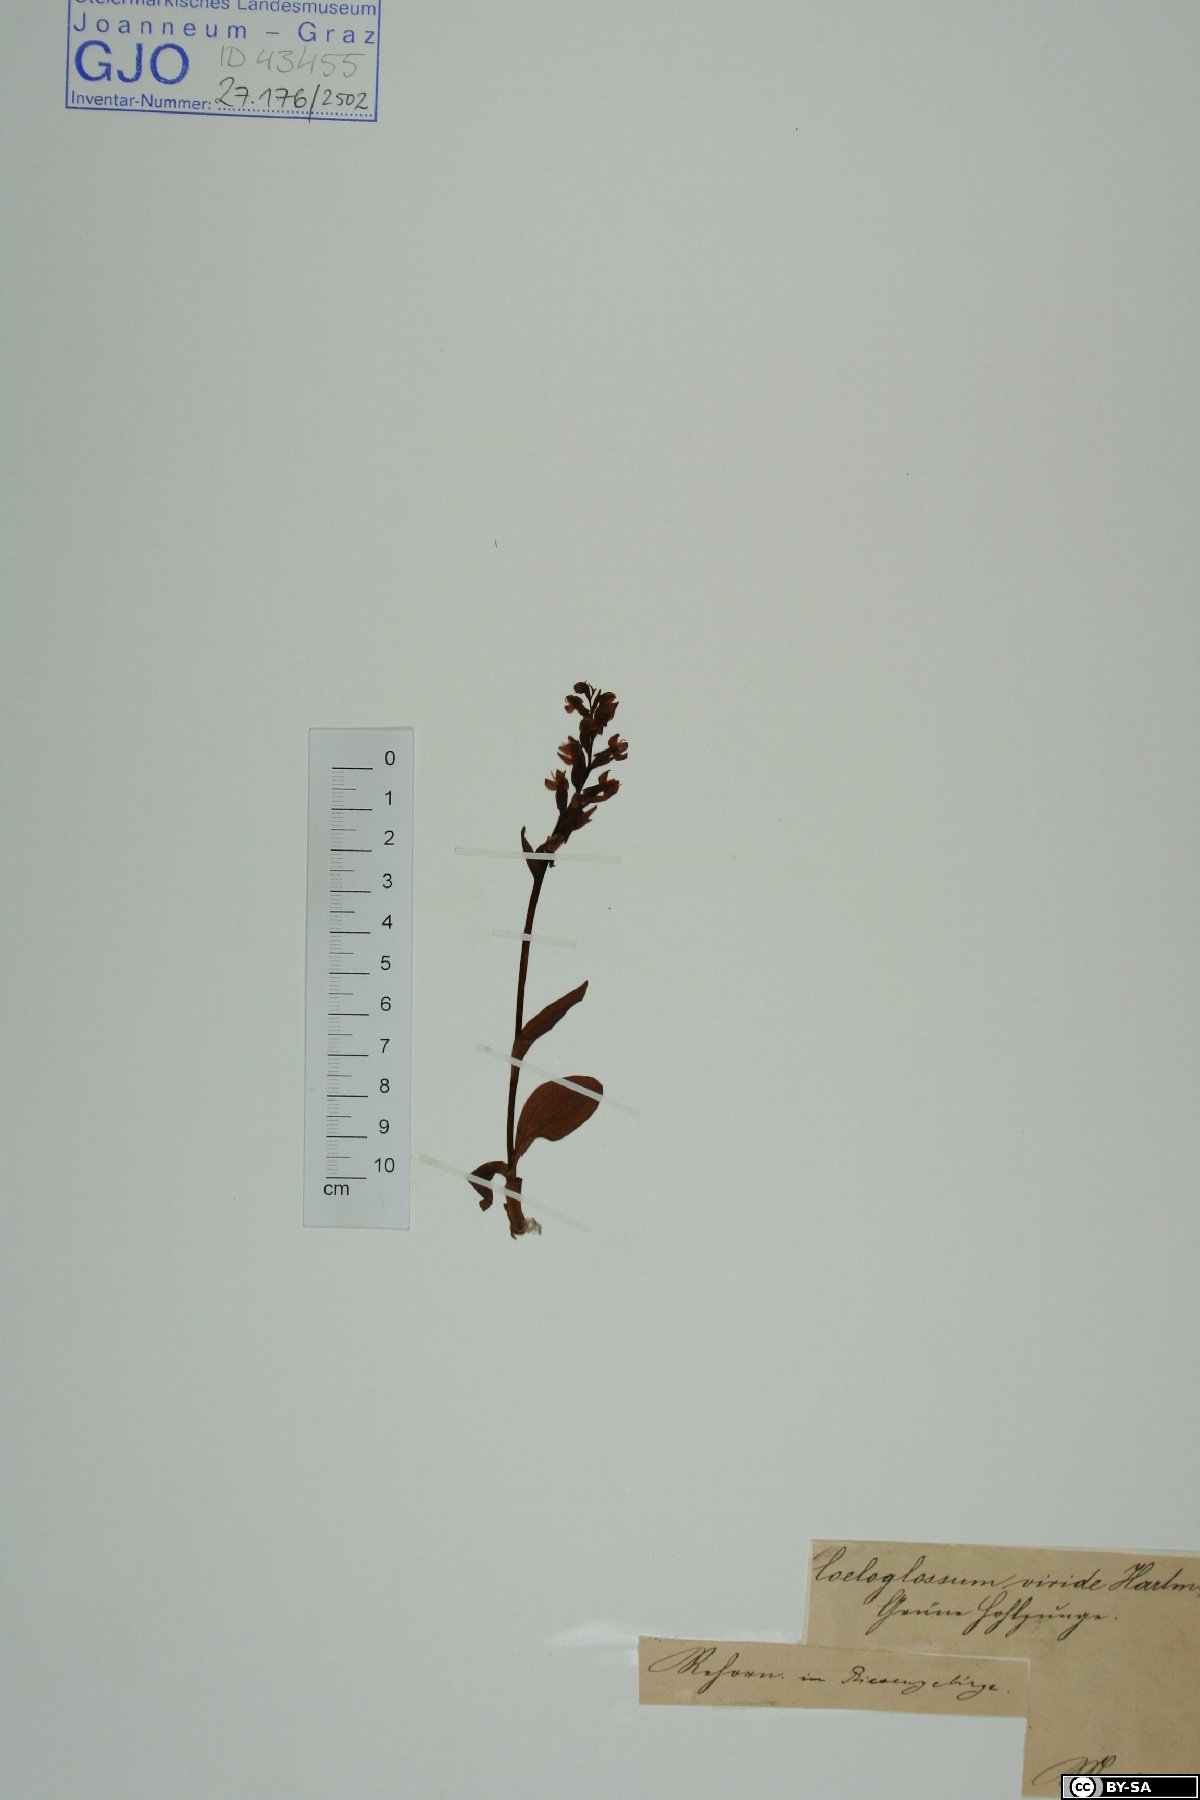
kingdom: Plantae
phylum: Tracheophyta
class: Liliopsida
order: Asparagales
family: Orchidaceae
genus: Dactylorhiza
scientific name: Dactylorhiza viridis
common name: Longbract frog orchid
